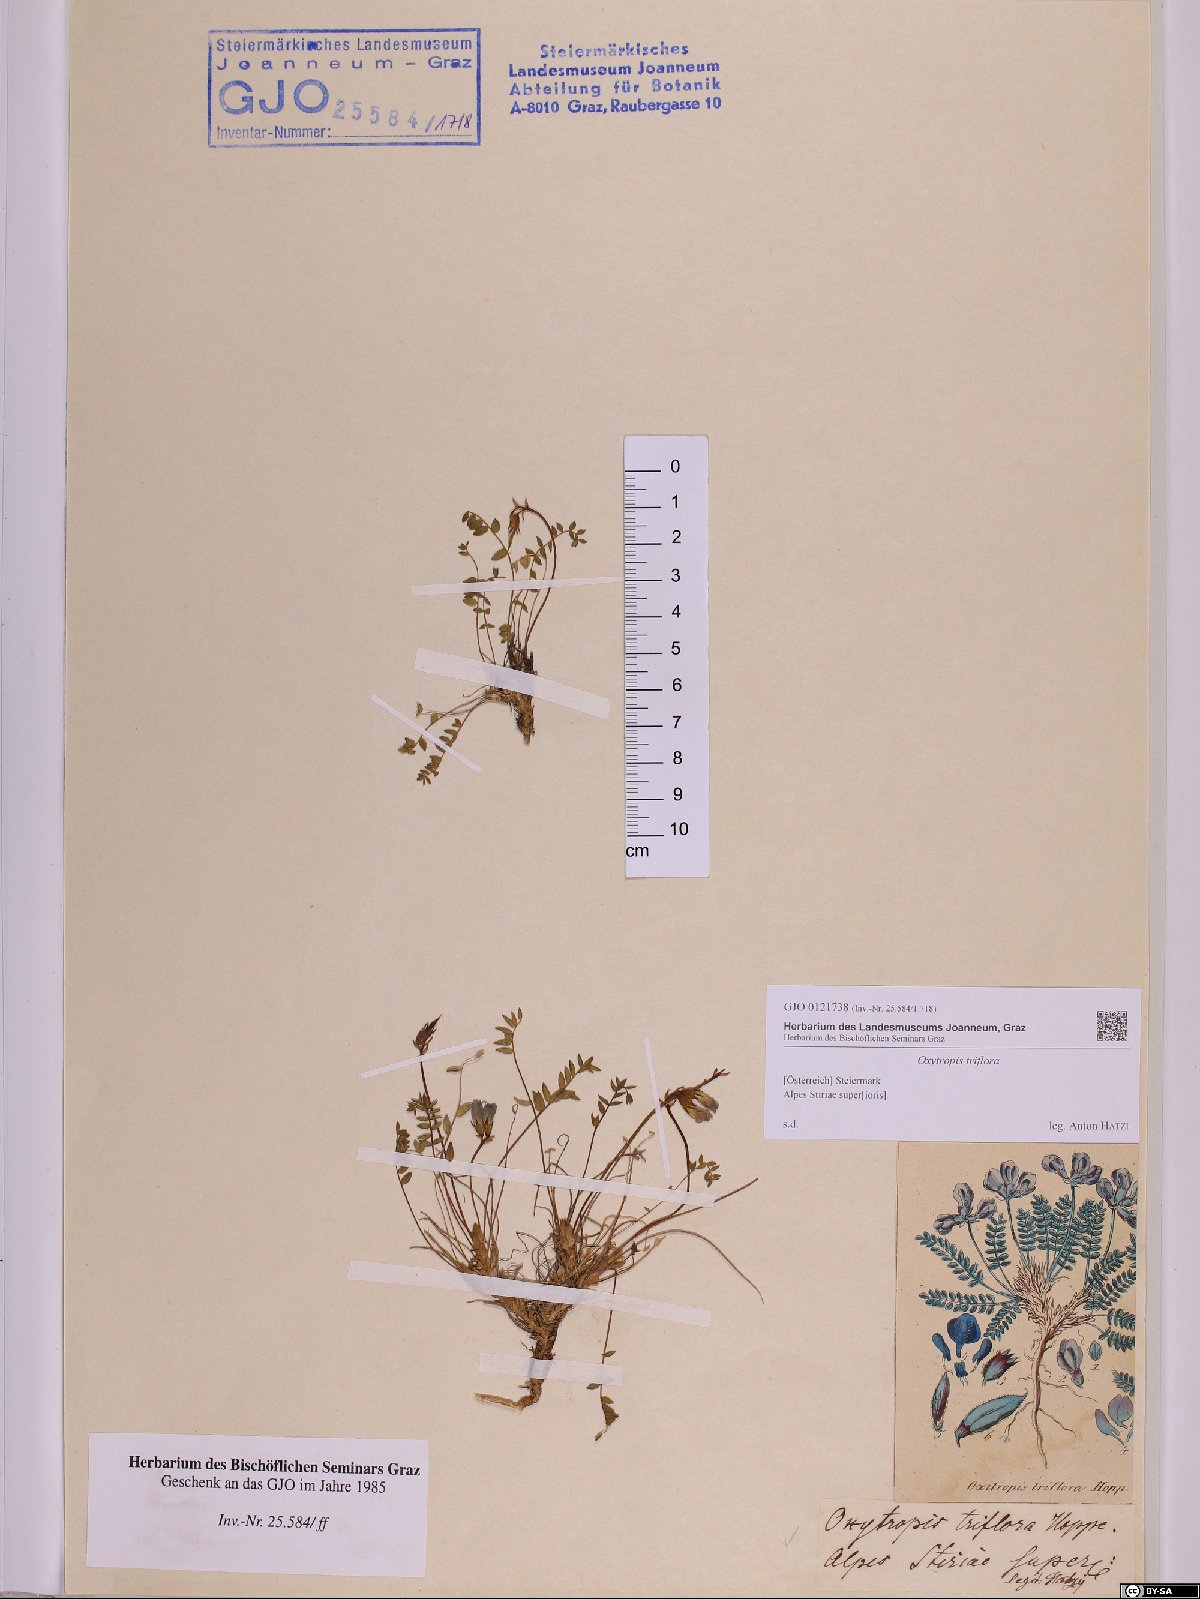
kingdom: Plantae
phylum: Tracheophyta
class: Magnoliopsida
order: Fabales
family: Fabaceae
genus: Oxytropis
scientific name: Oxytropis triflora
